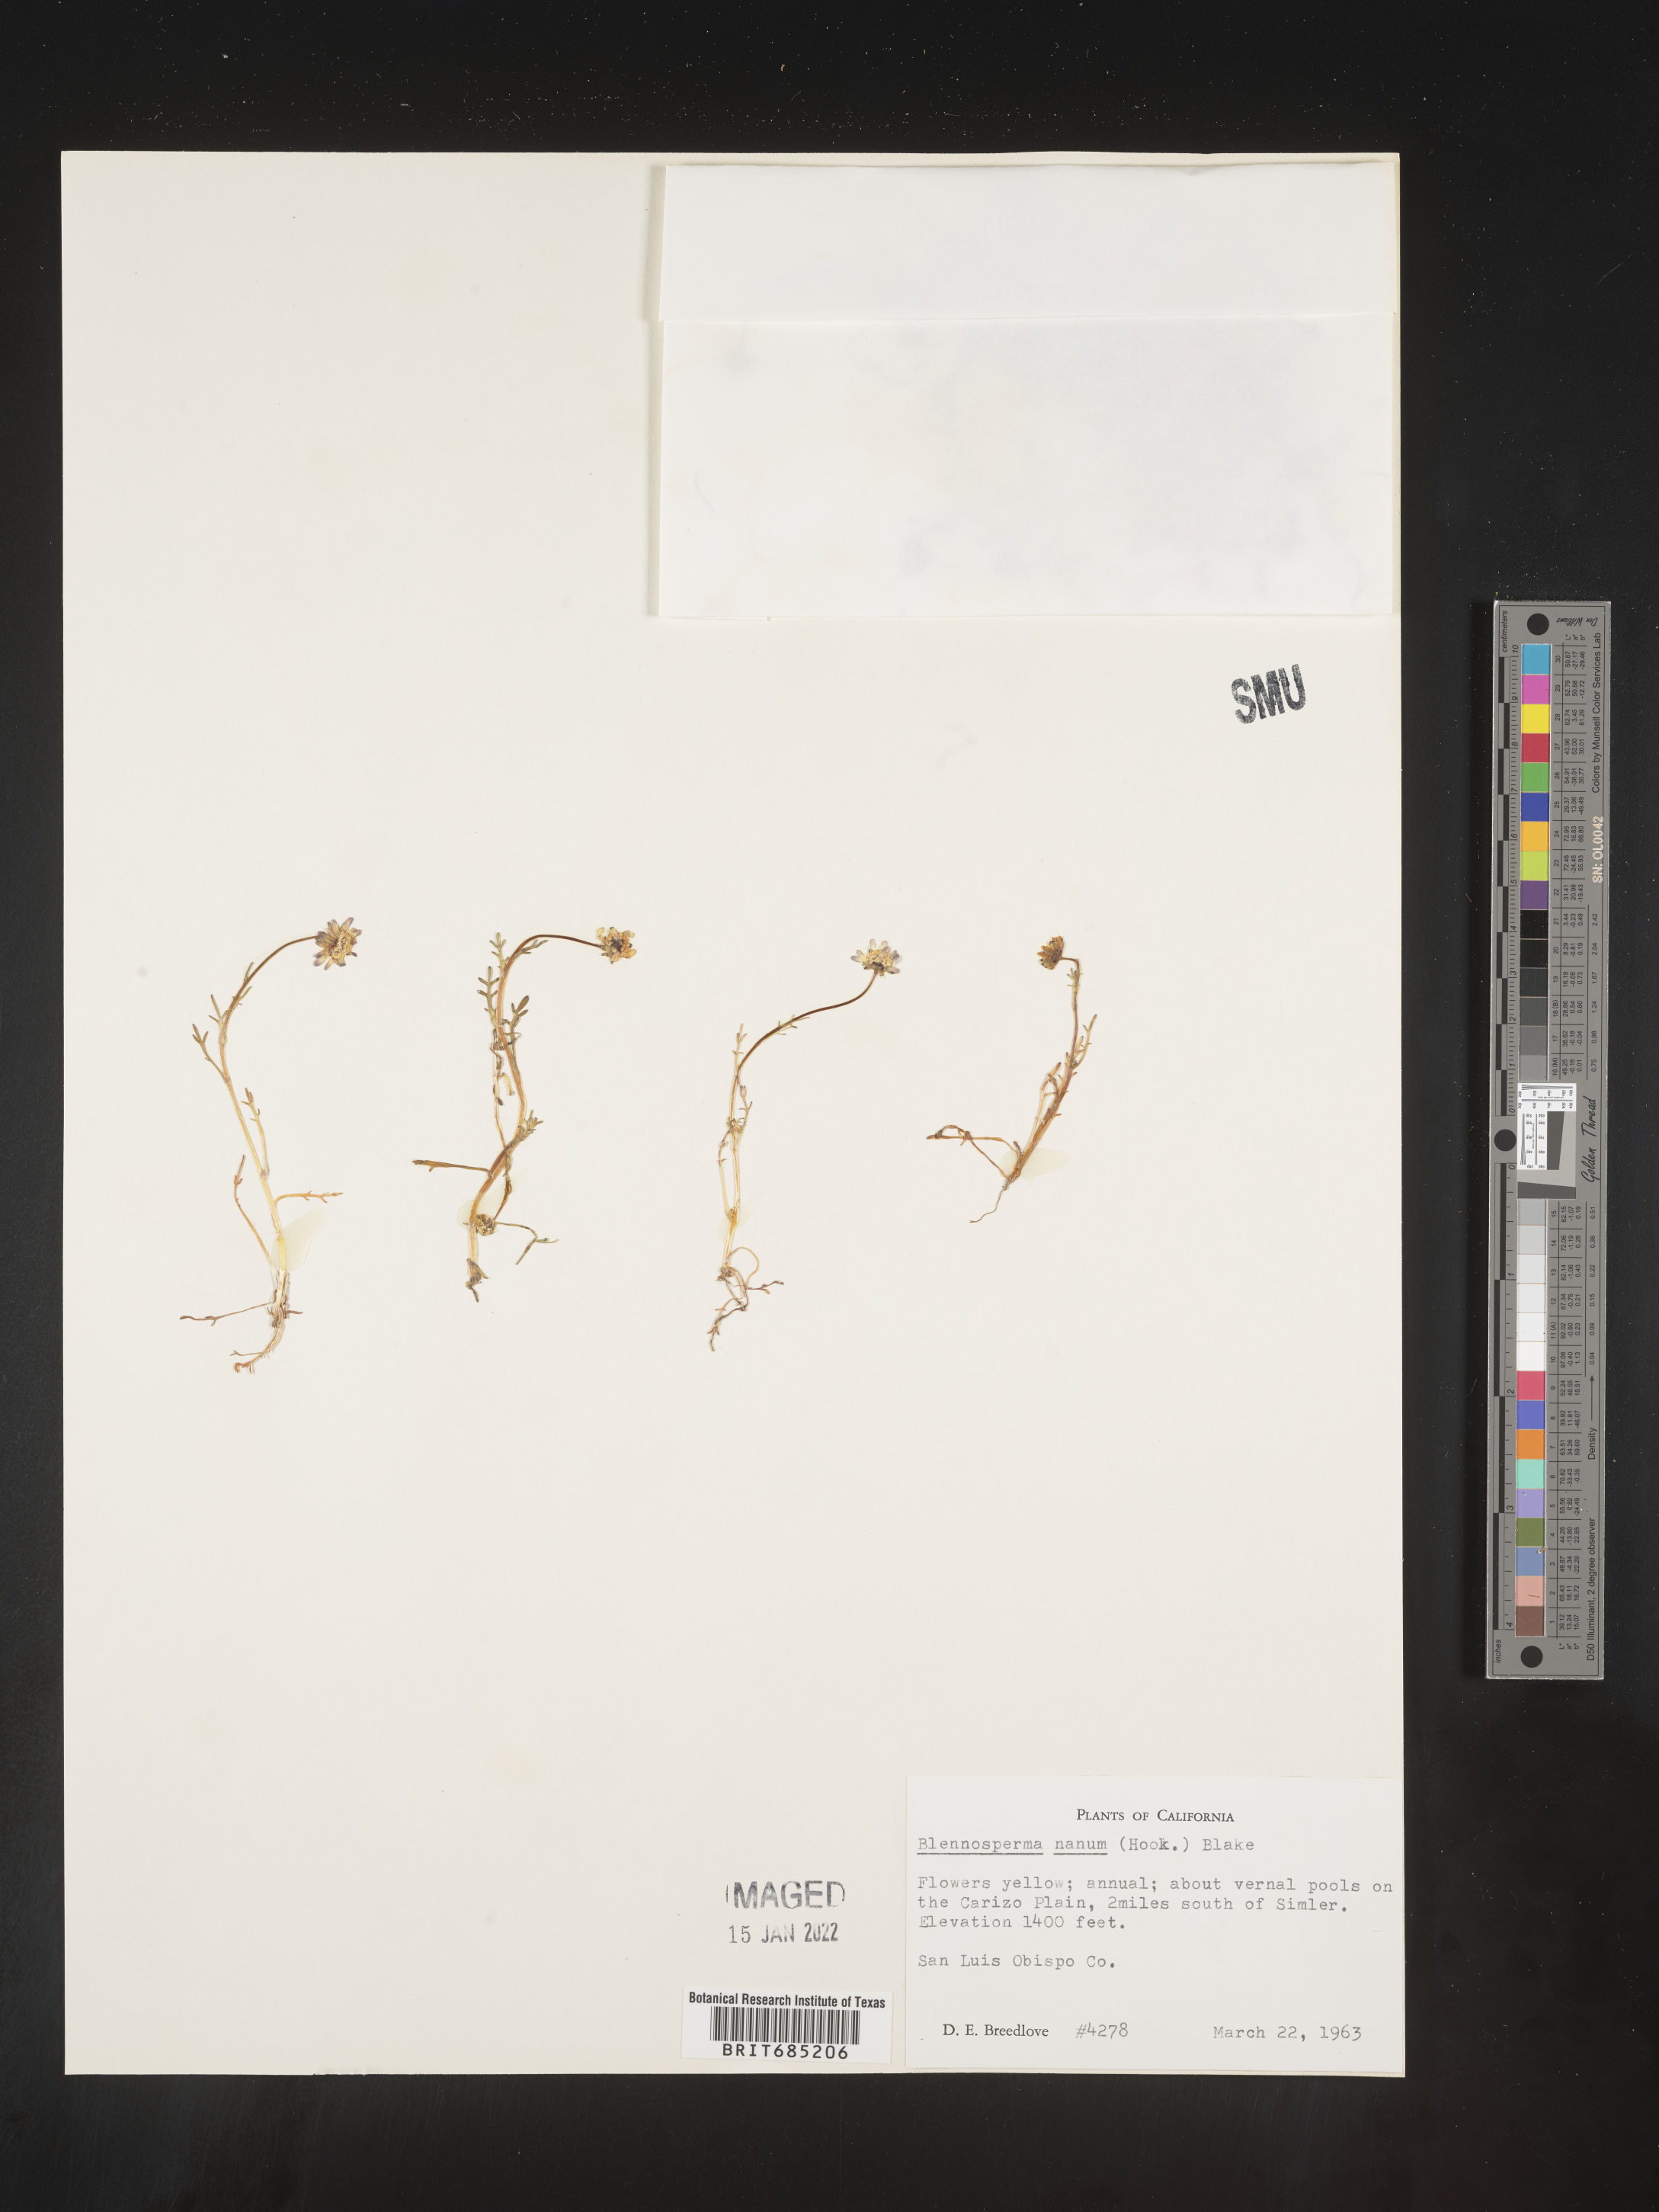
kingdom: Plantae
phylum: Tracheophyta
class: Magnoliopsida
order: Asterales
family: Asteraceae
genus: Blennosperma
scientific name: Blennosperma
